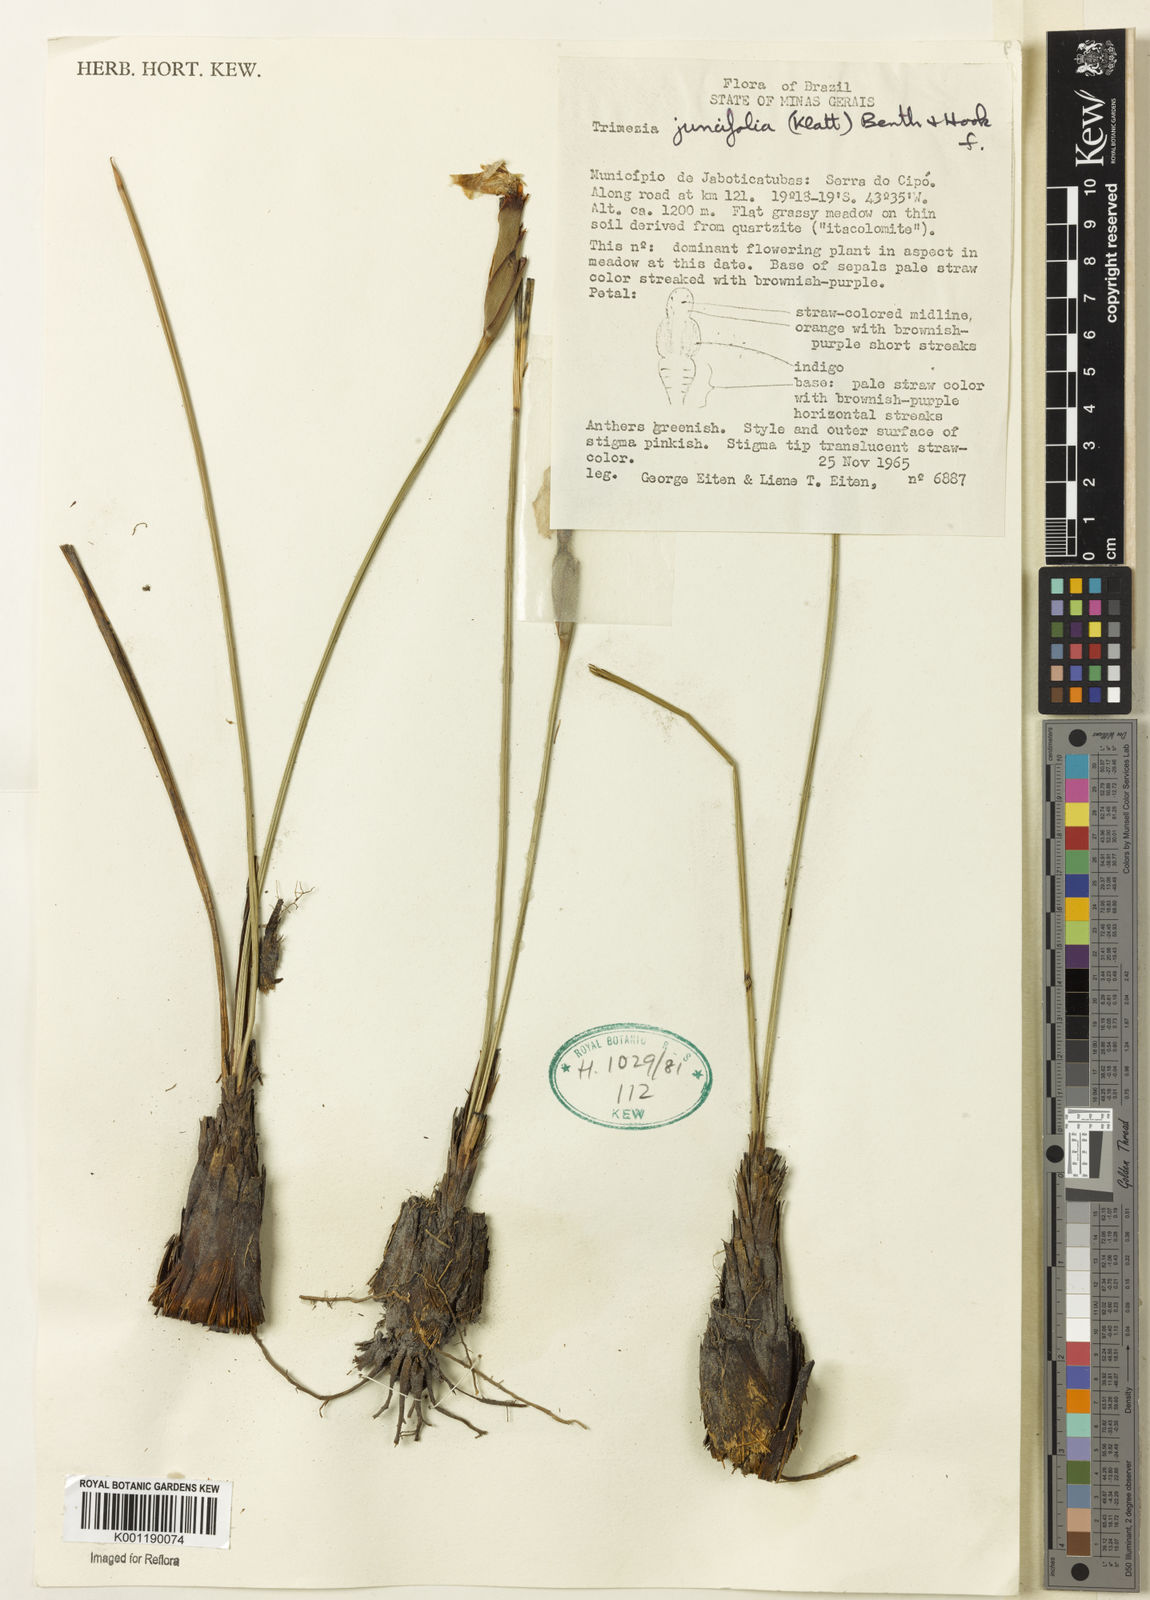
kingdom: Plantae
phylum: Tracheophyta
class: Liliopsida
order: Asparagales
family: Iridaceae
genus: Trimezia
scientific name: Trimezia juncifolia
